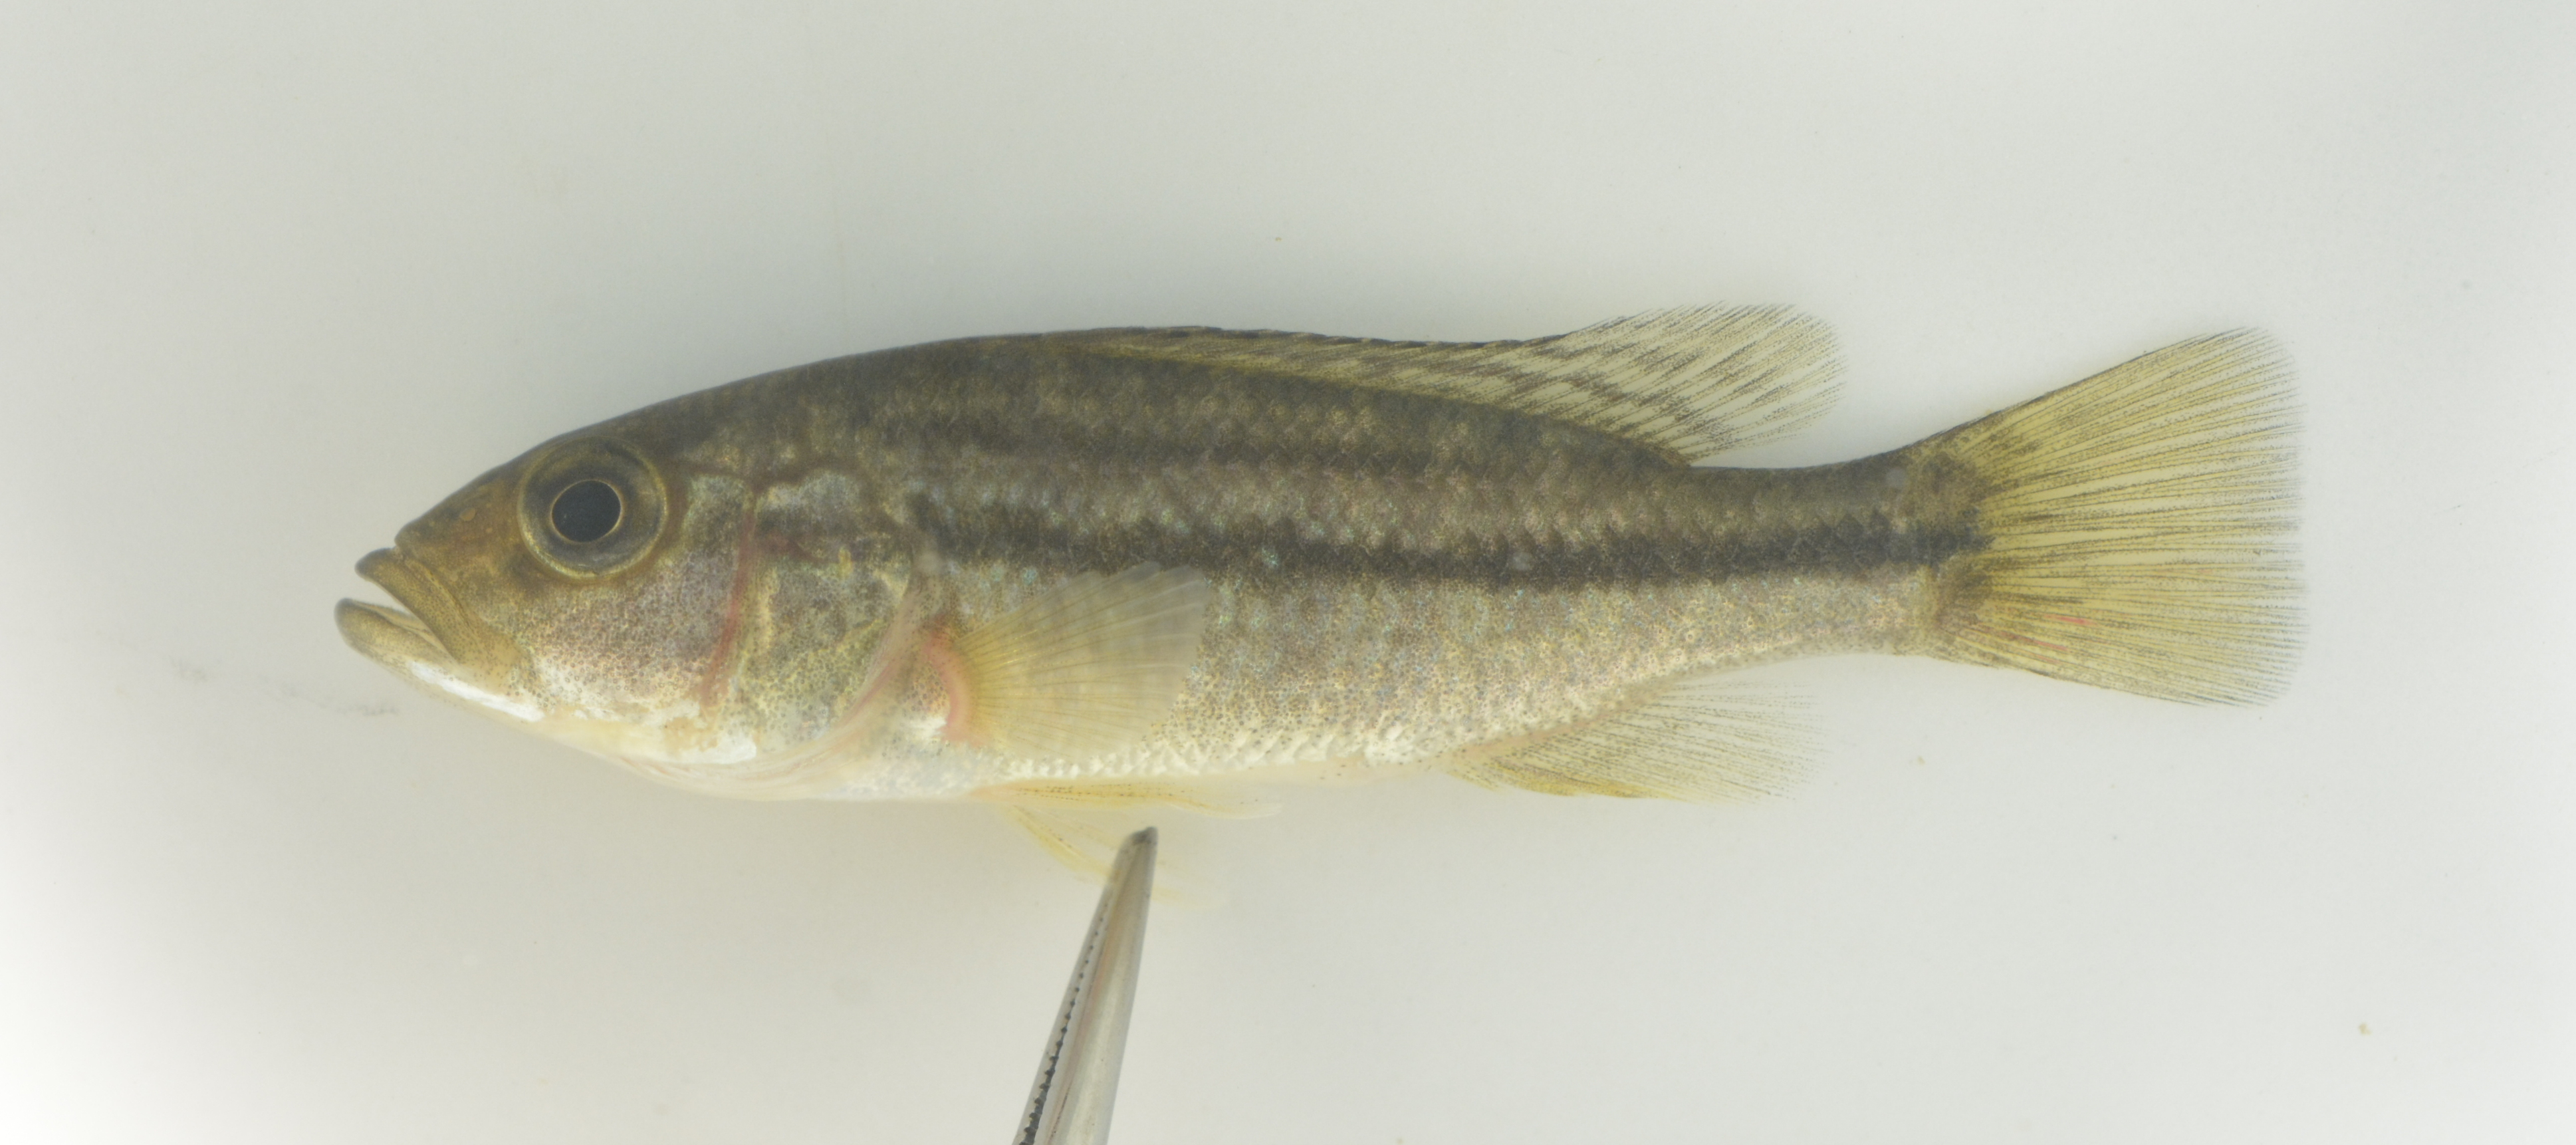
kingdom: Animalia
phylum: Chordata
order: Perciformes
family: Cichlidae
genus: Serranochromis
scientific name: Serranochromis robustus
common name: Yellow-belly bream
